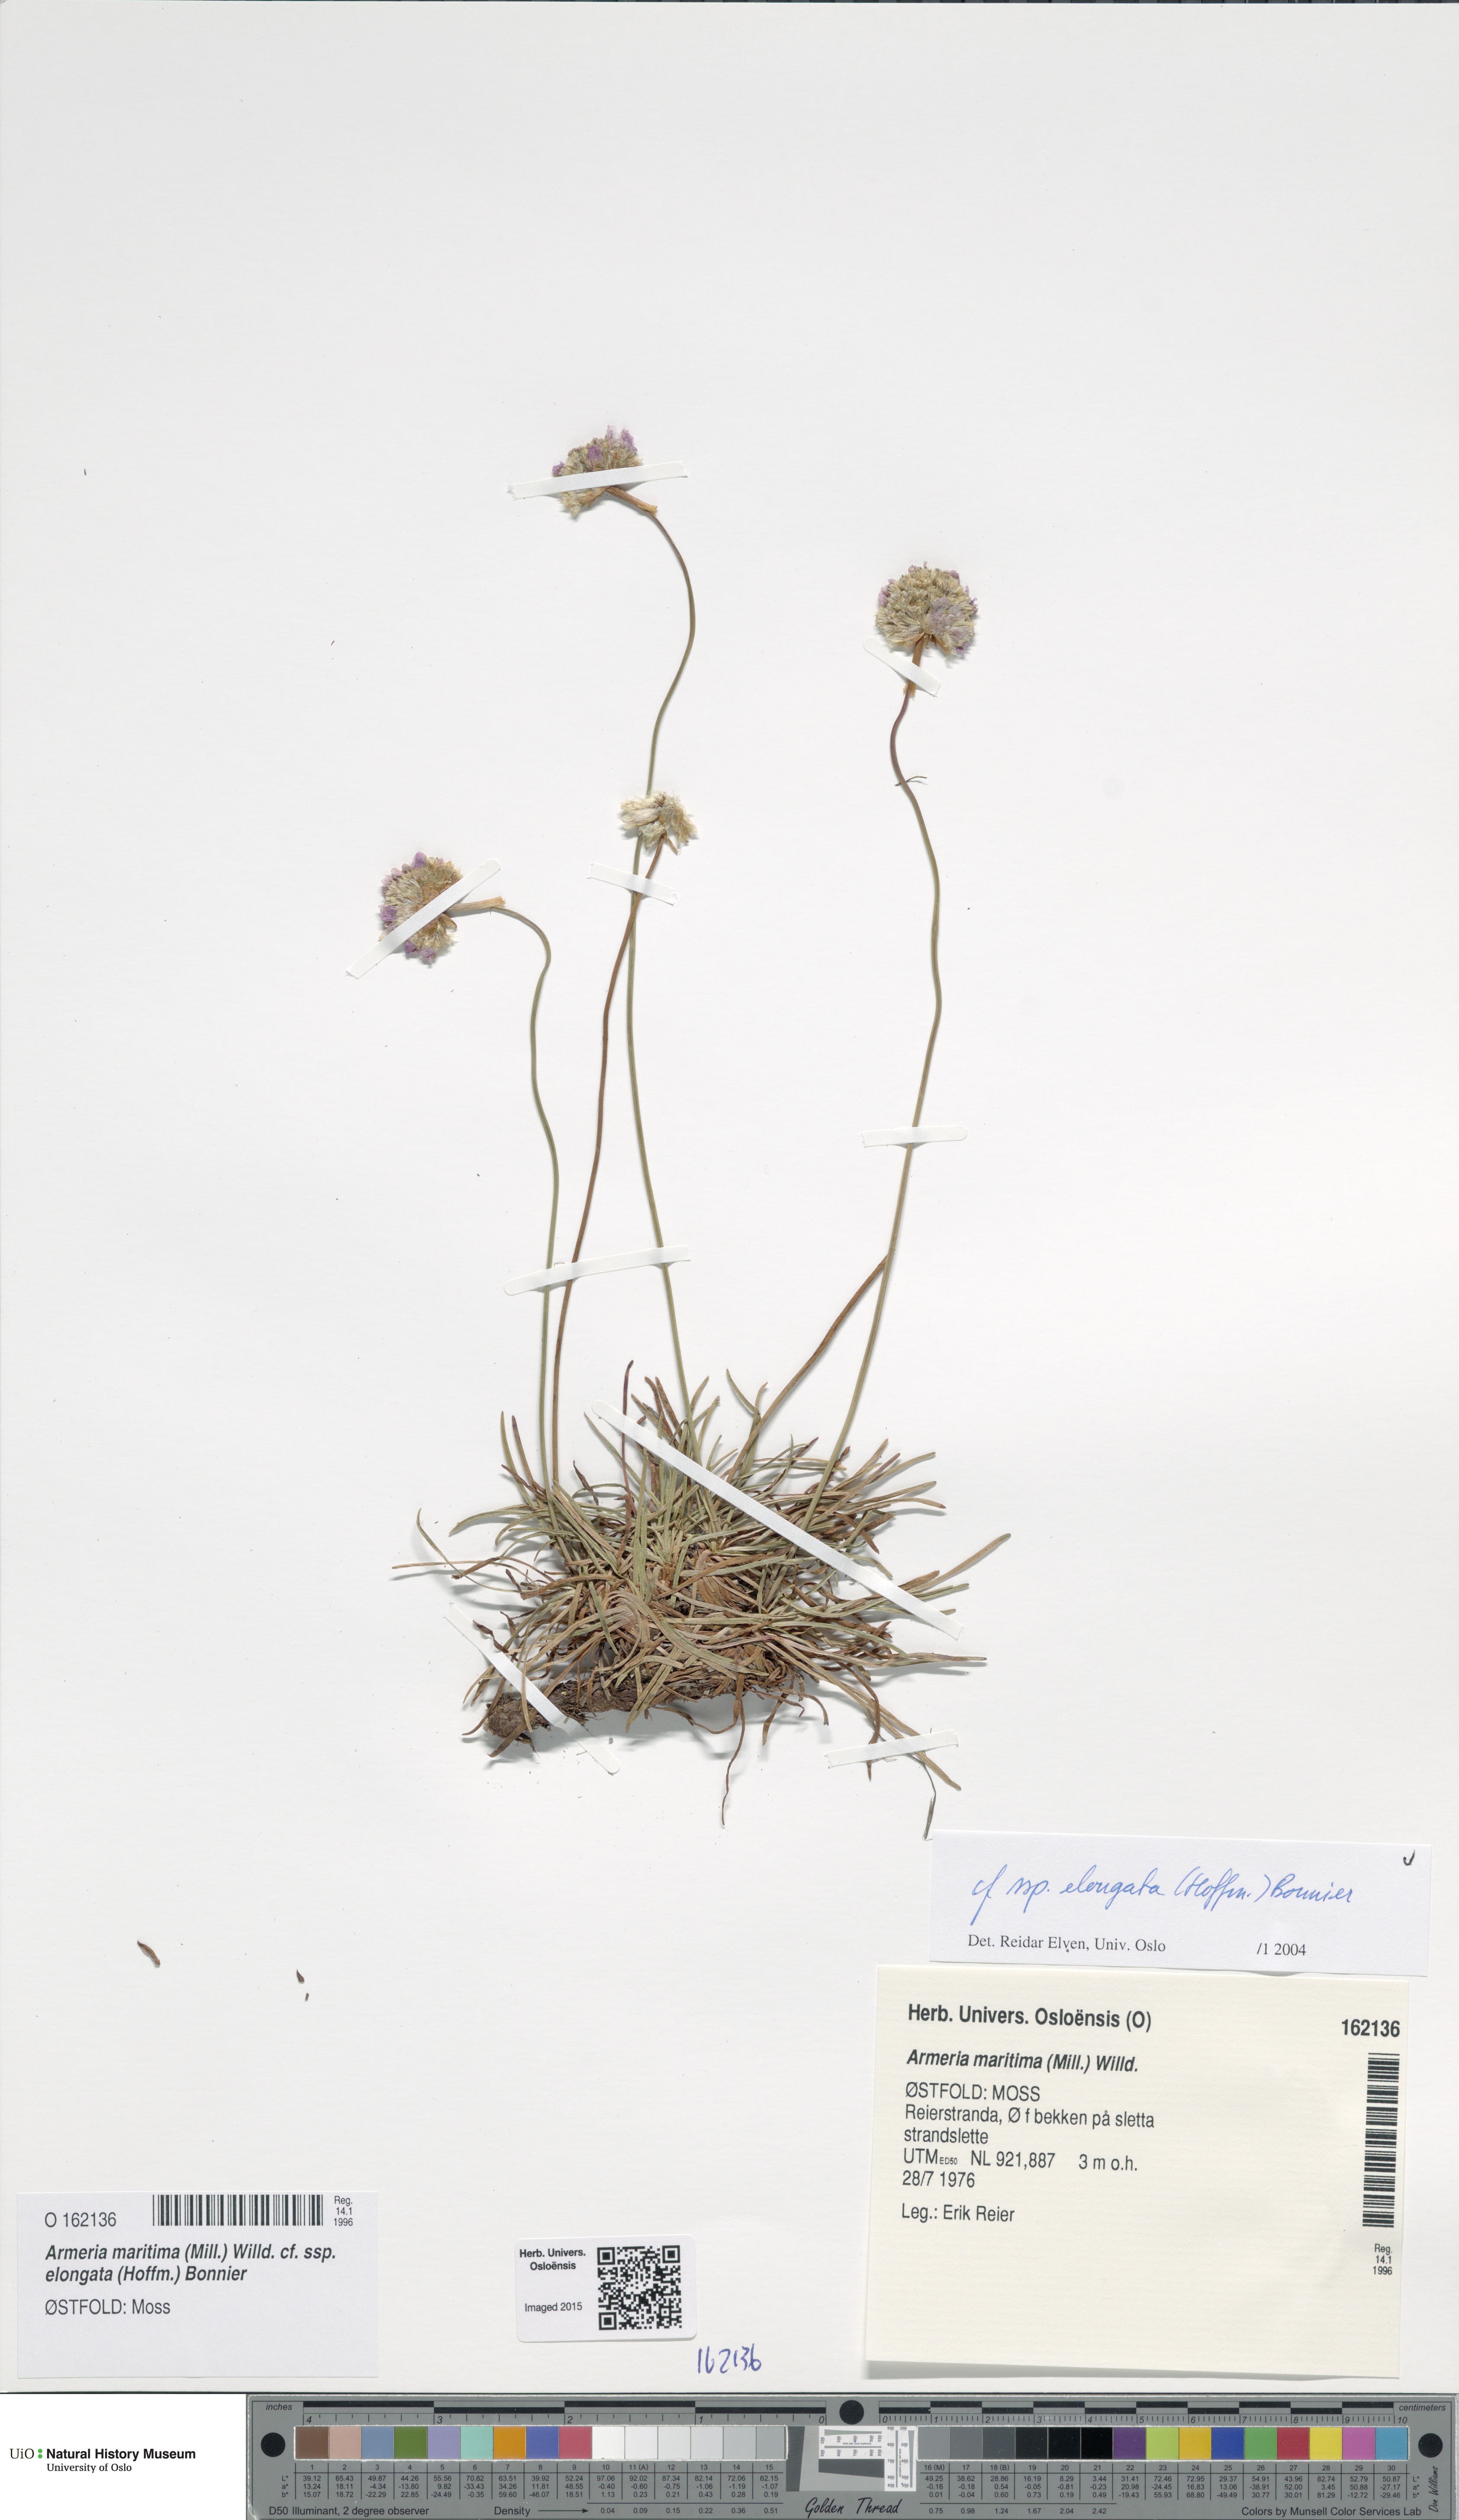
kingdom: Plantae
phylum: Tracheophyta
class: Magnoliopsida
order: Caryophyllales
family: Plumbaginaceae
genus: Armeria
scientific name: Armeria maritima
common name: Thrift
